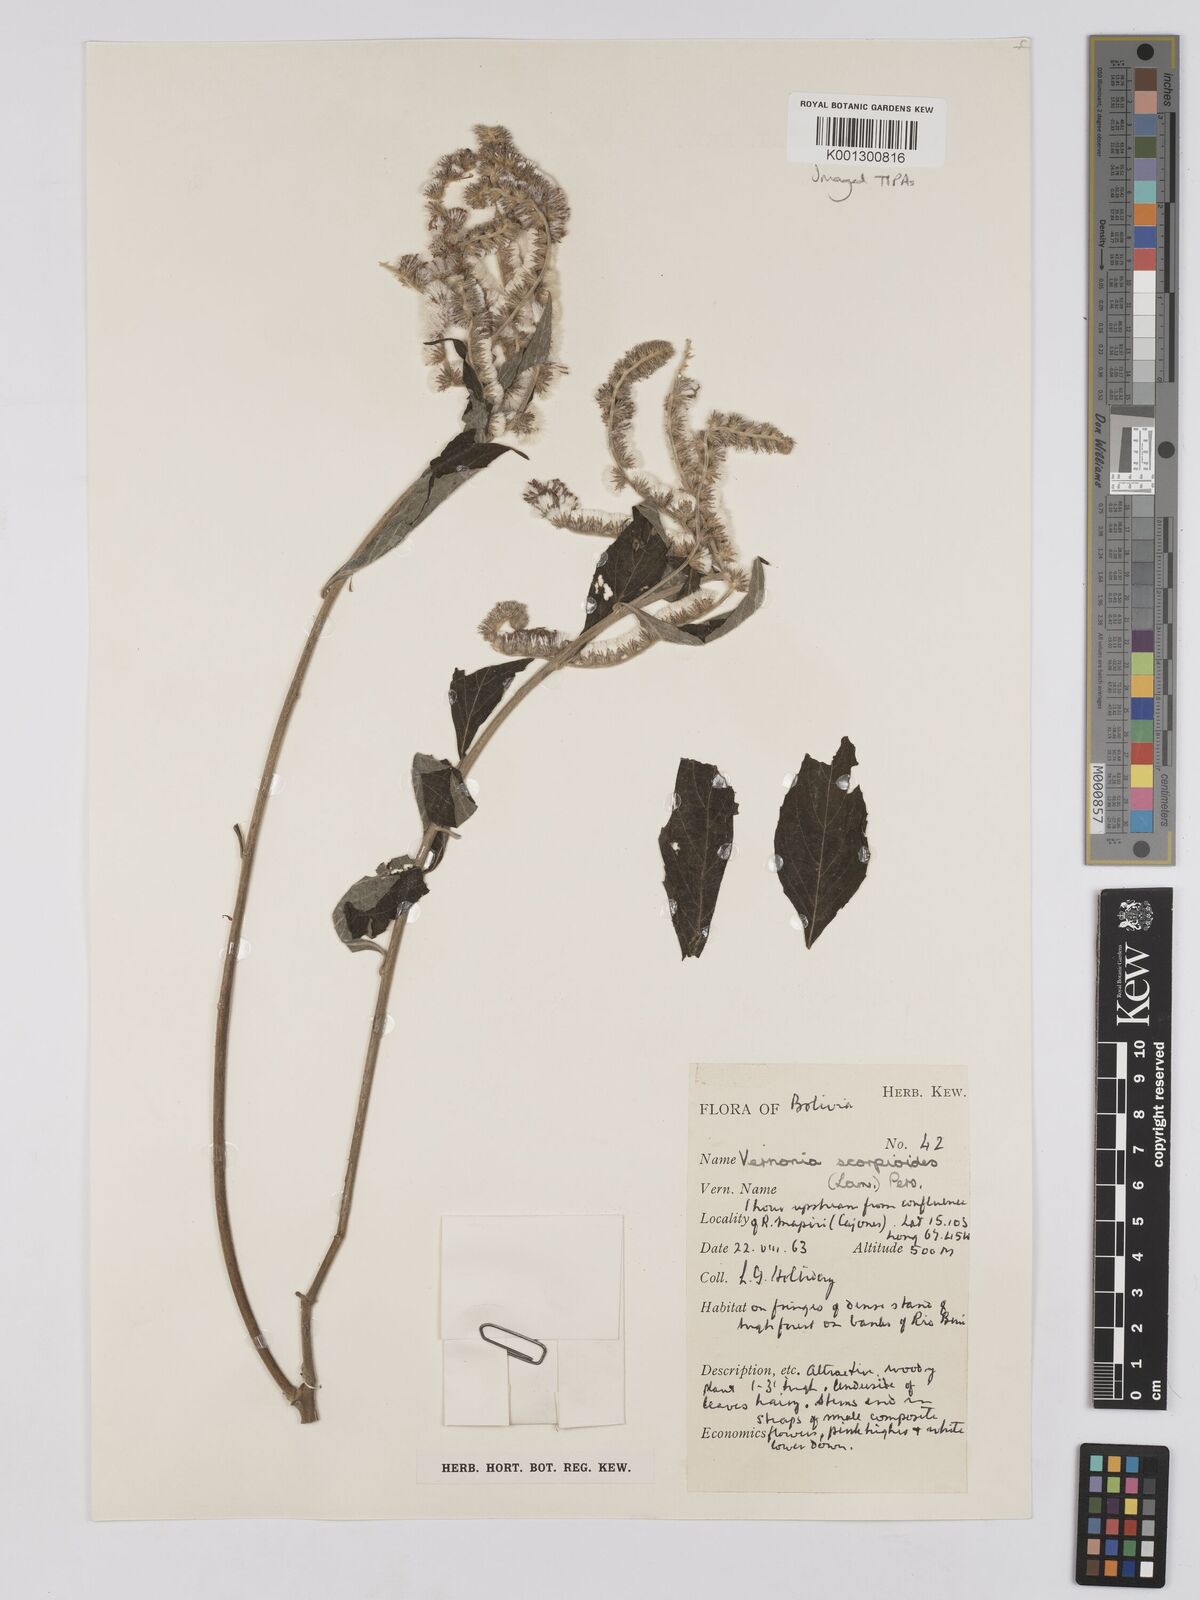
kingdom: Plantae
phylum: Tracheophyta
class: Magnoliopsida
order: Asterales
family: Asteraceae
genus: Cyrtocymura
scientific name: Cyrtocymura scorpioides
